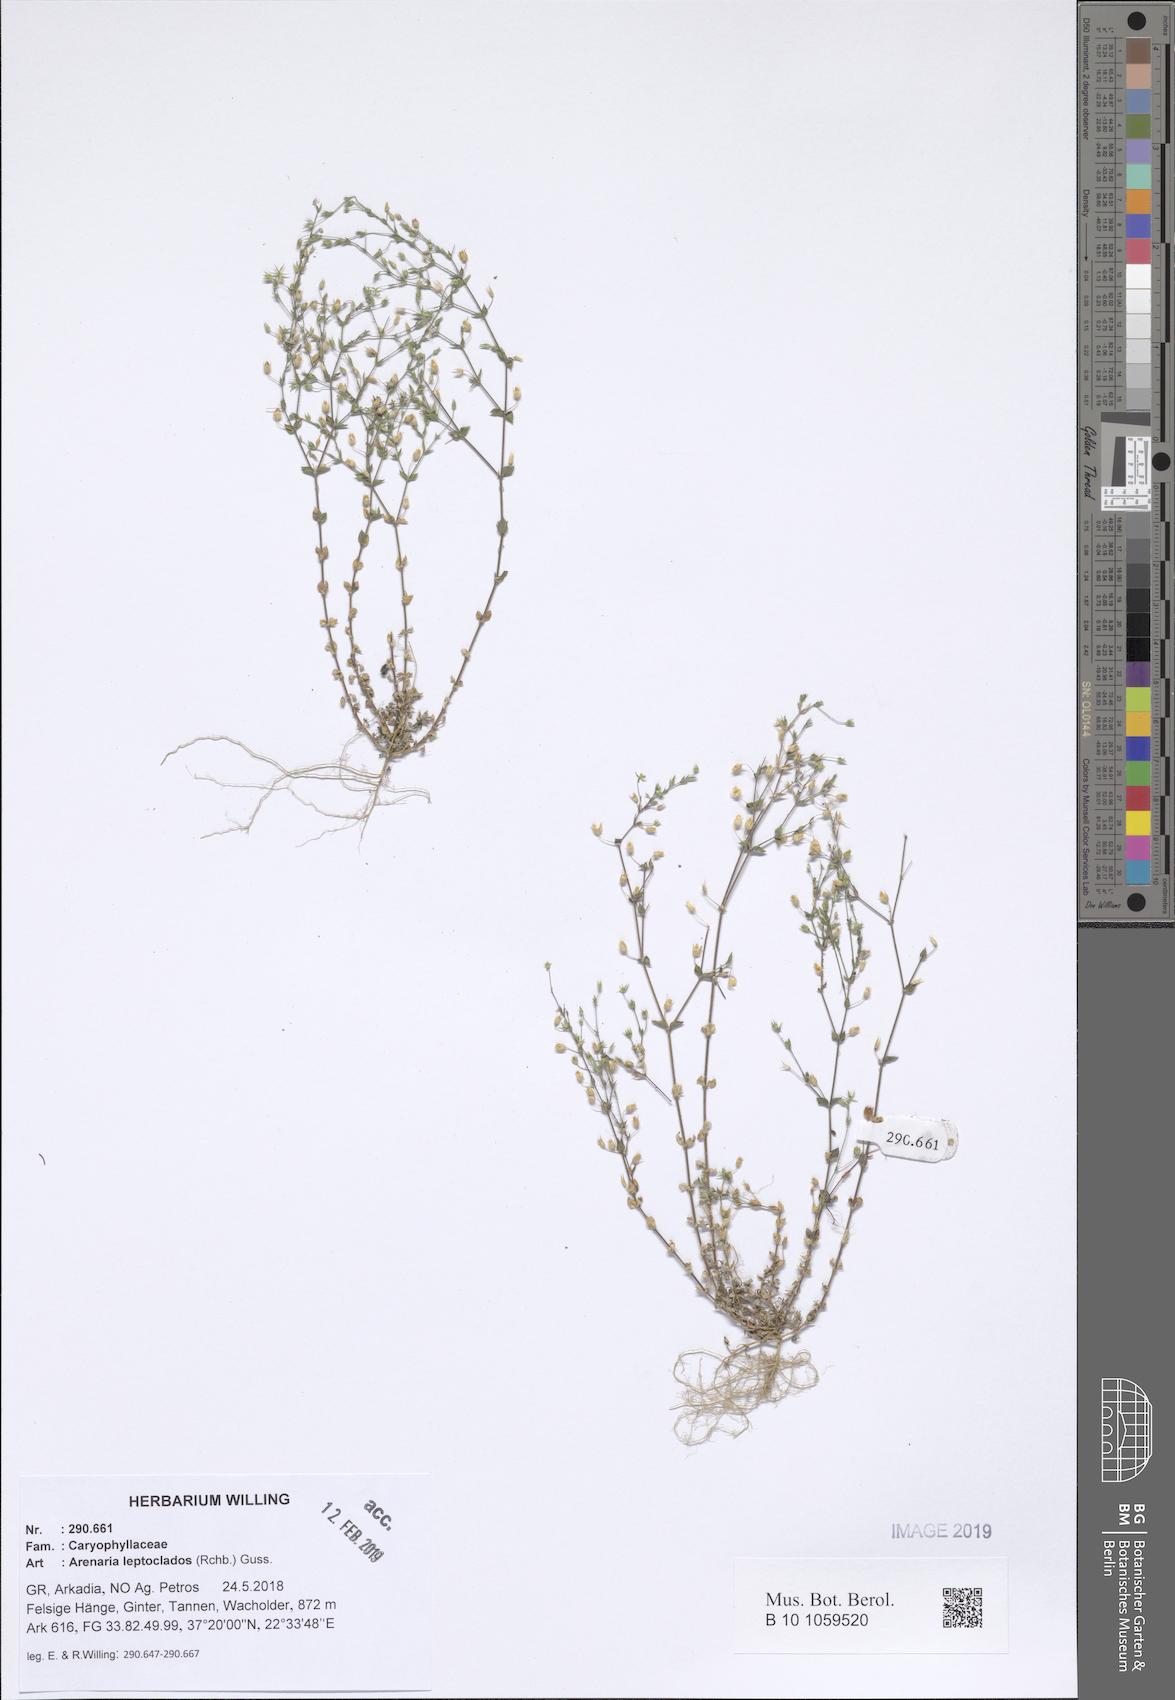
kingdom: Plantae
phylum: Tracheophyta
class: Magnoliopsida
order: Caryophyllales
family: Caryophyllaceae
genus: Arenaria
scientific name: Arenaria leptoclados
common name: Thyme-leaved sandwort
